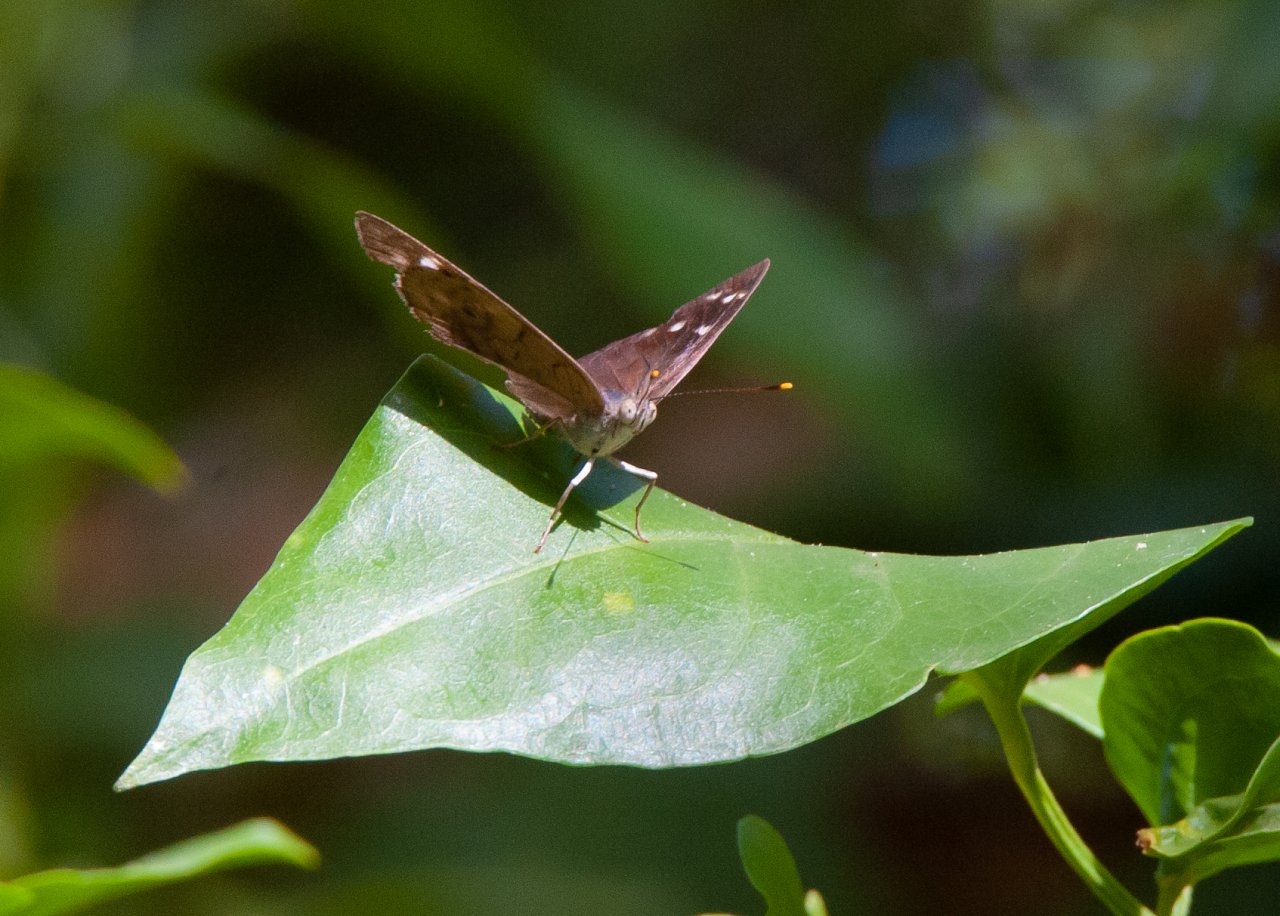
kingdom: Animalia
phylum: Arthropoda
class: Insecta
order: Lepidoptera
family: Nymphalidae
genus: Eunica
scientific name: Eunica monima
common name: Dingy Purplewing
